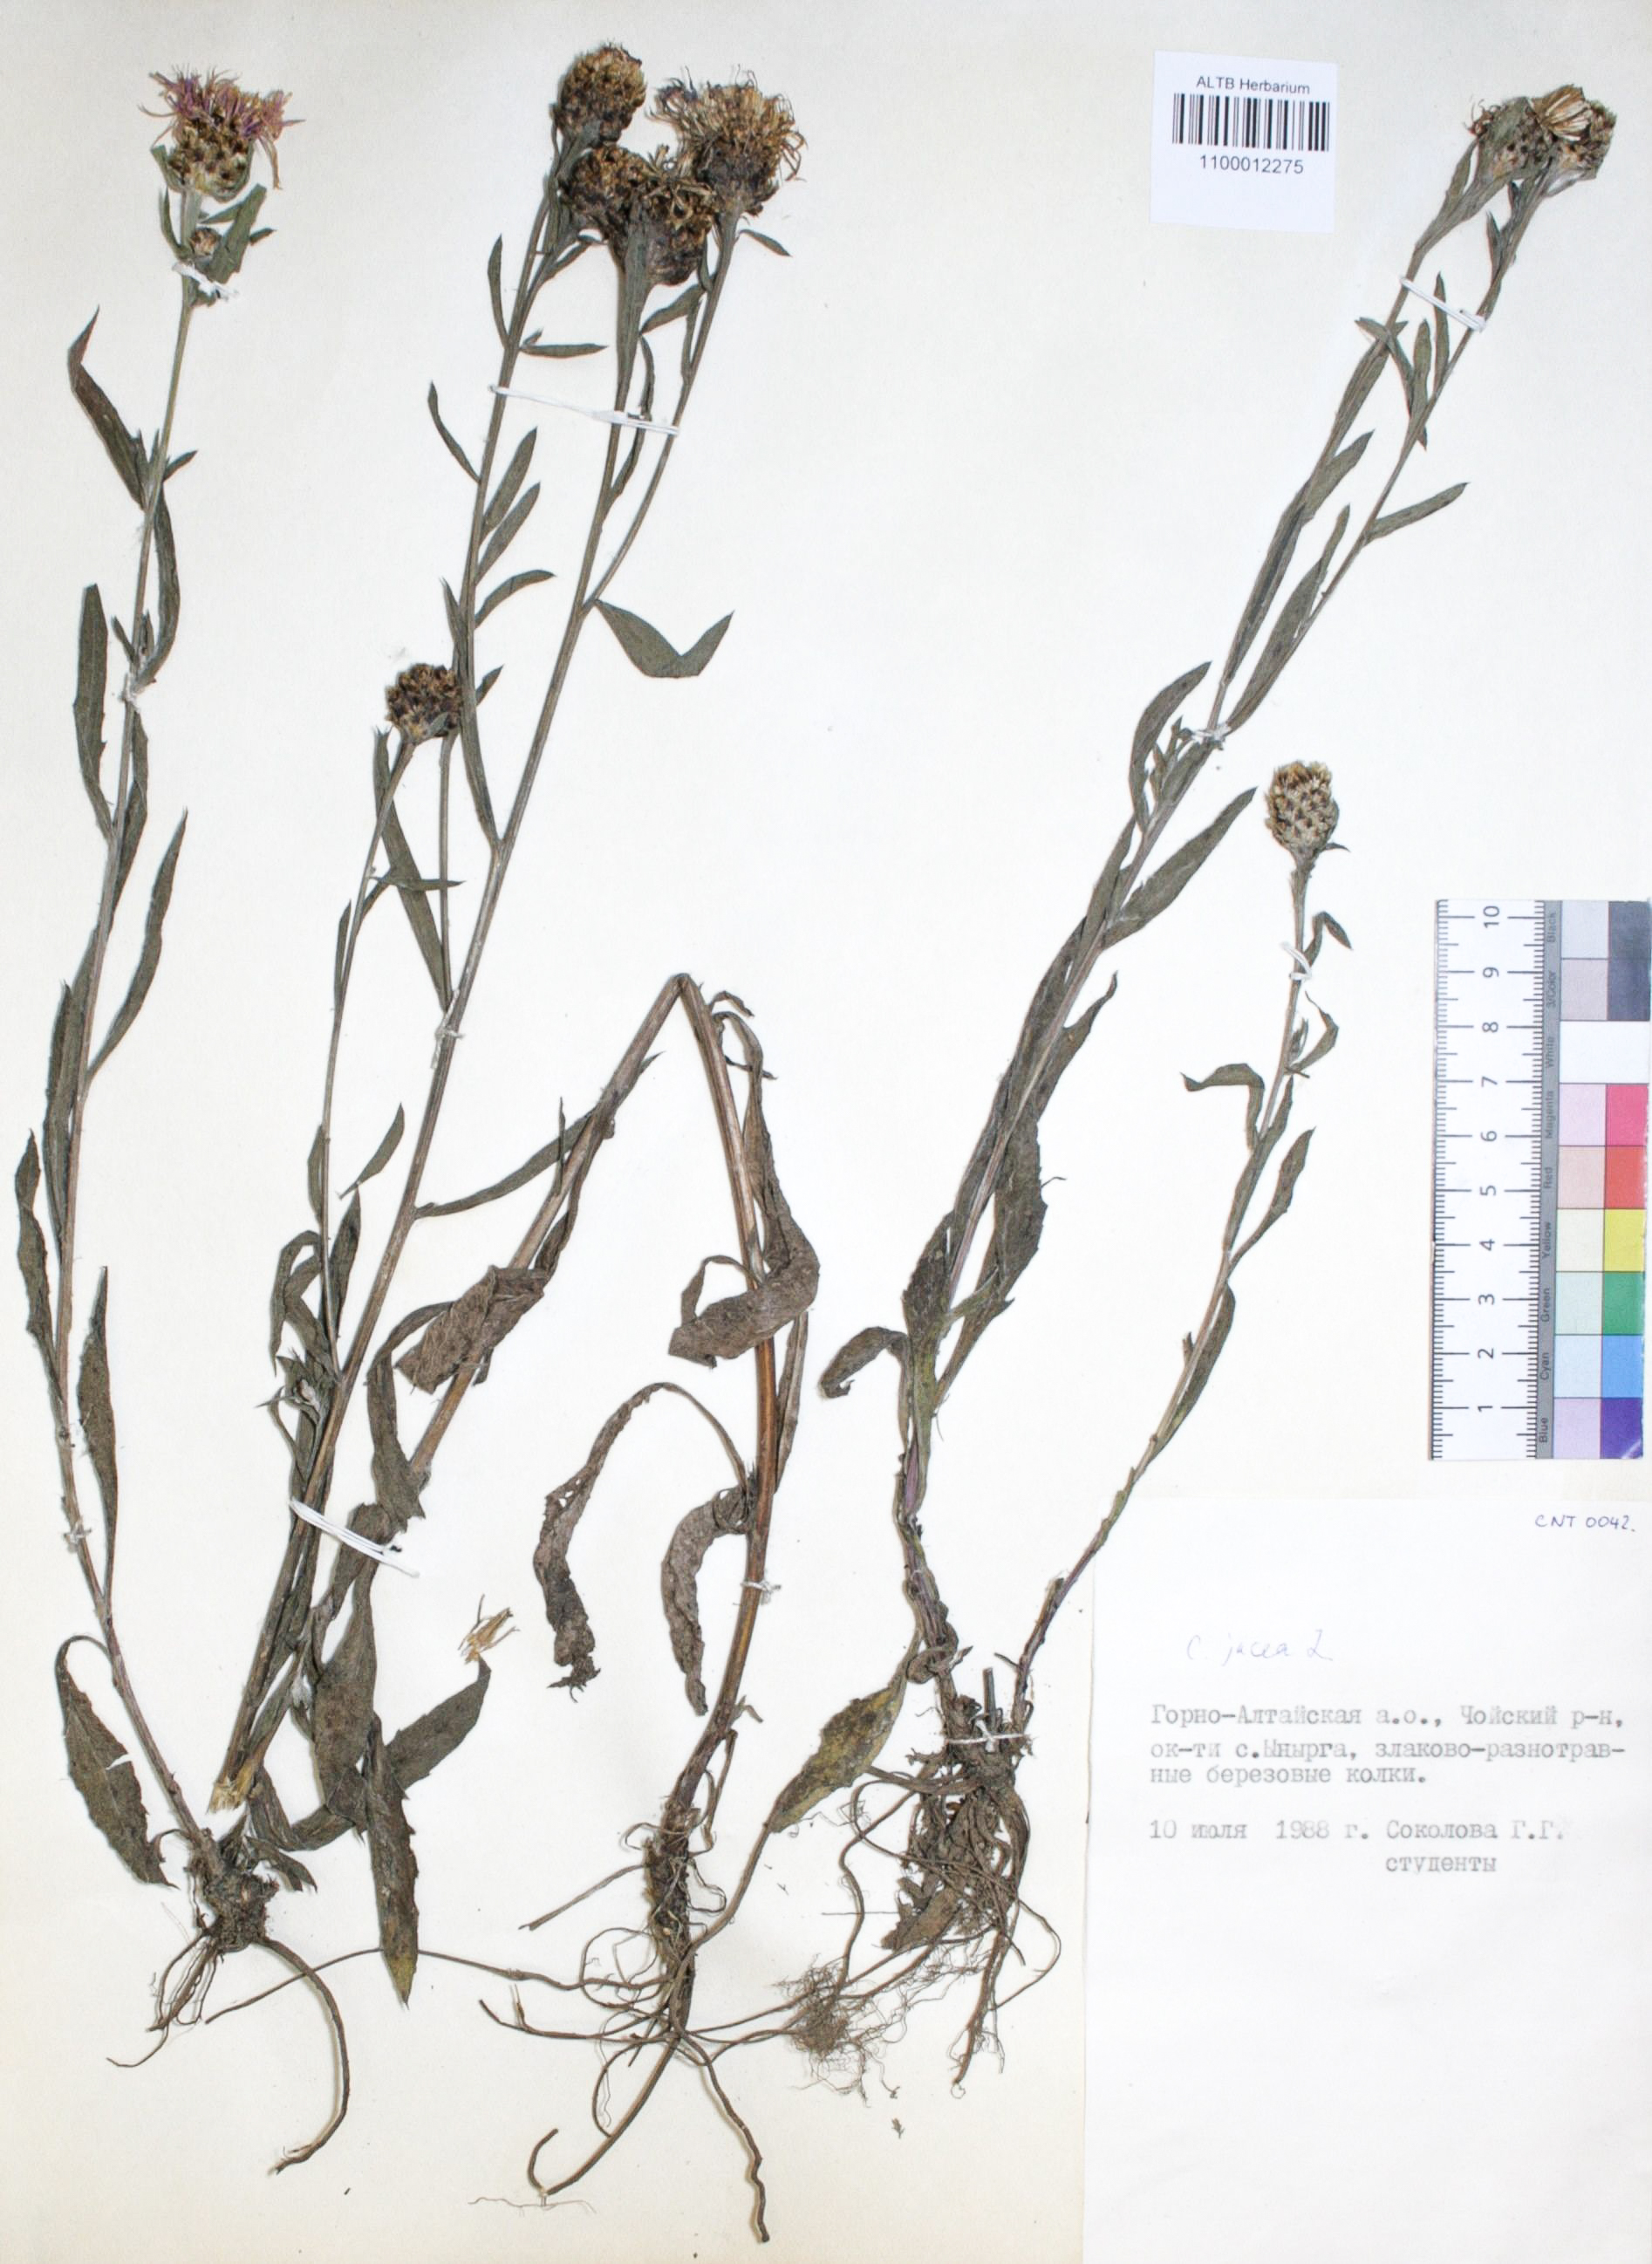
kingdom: Plantae
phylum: Tracheophyta
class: Magnoliopsida
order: Asterales
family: Asteraceae
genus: Centaurea
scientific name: Centaurea jacea
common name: Brown knapweed
